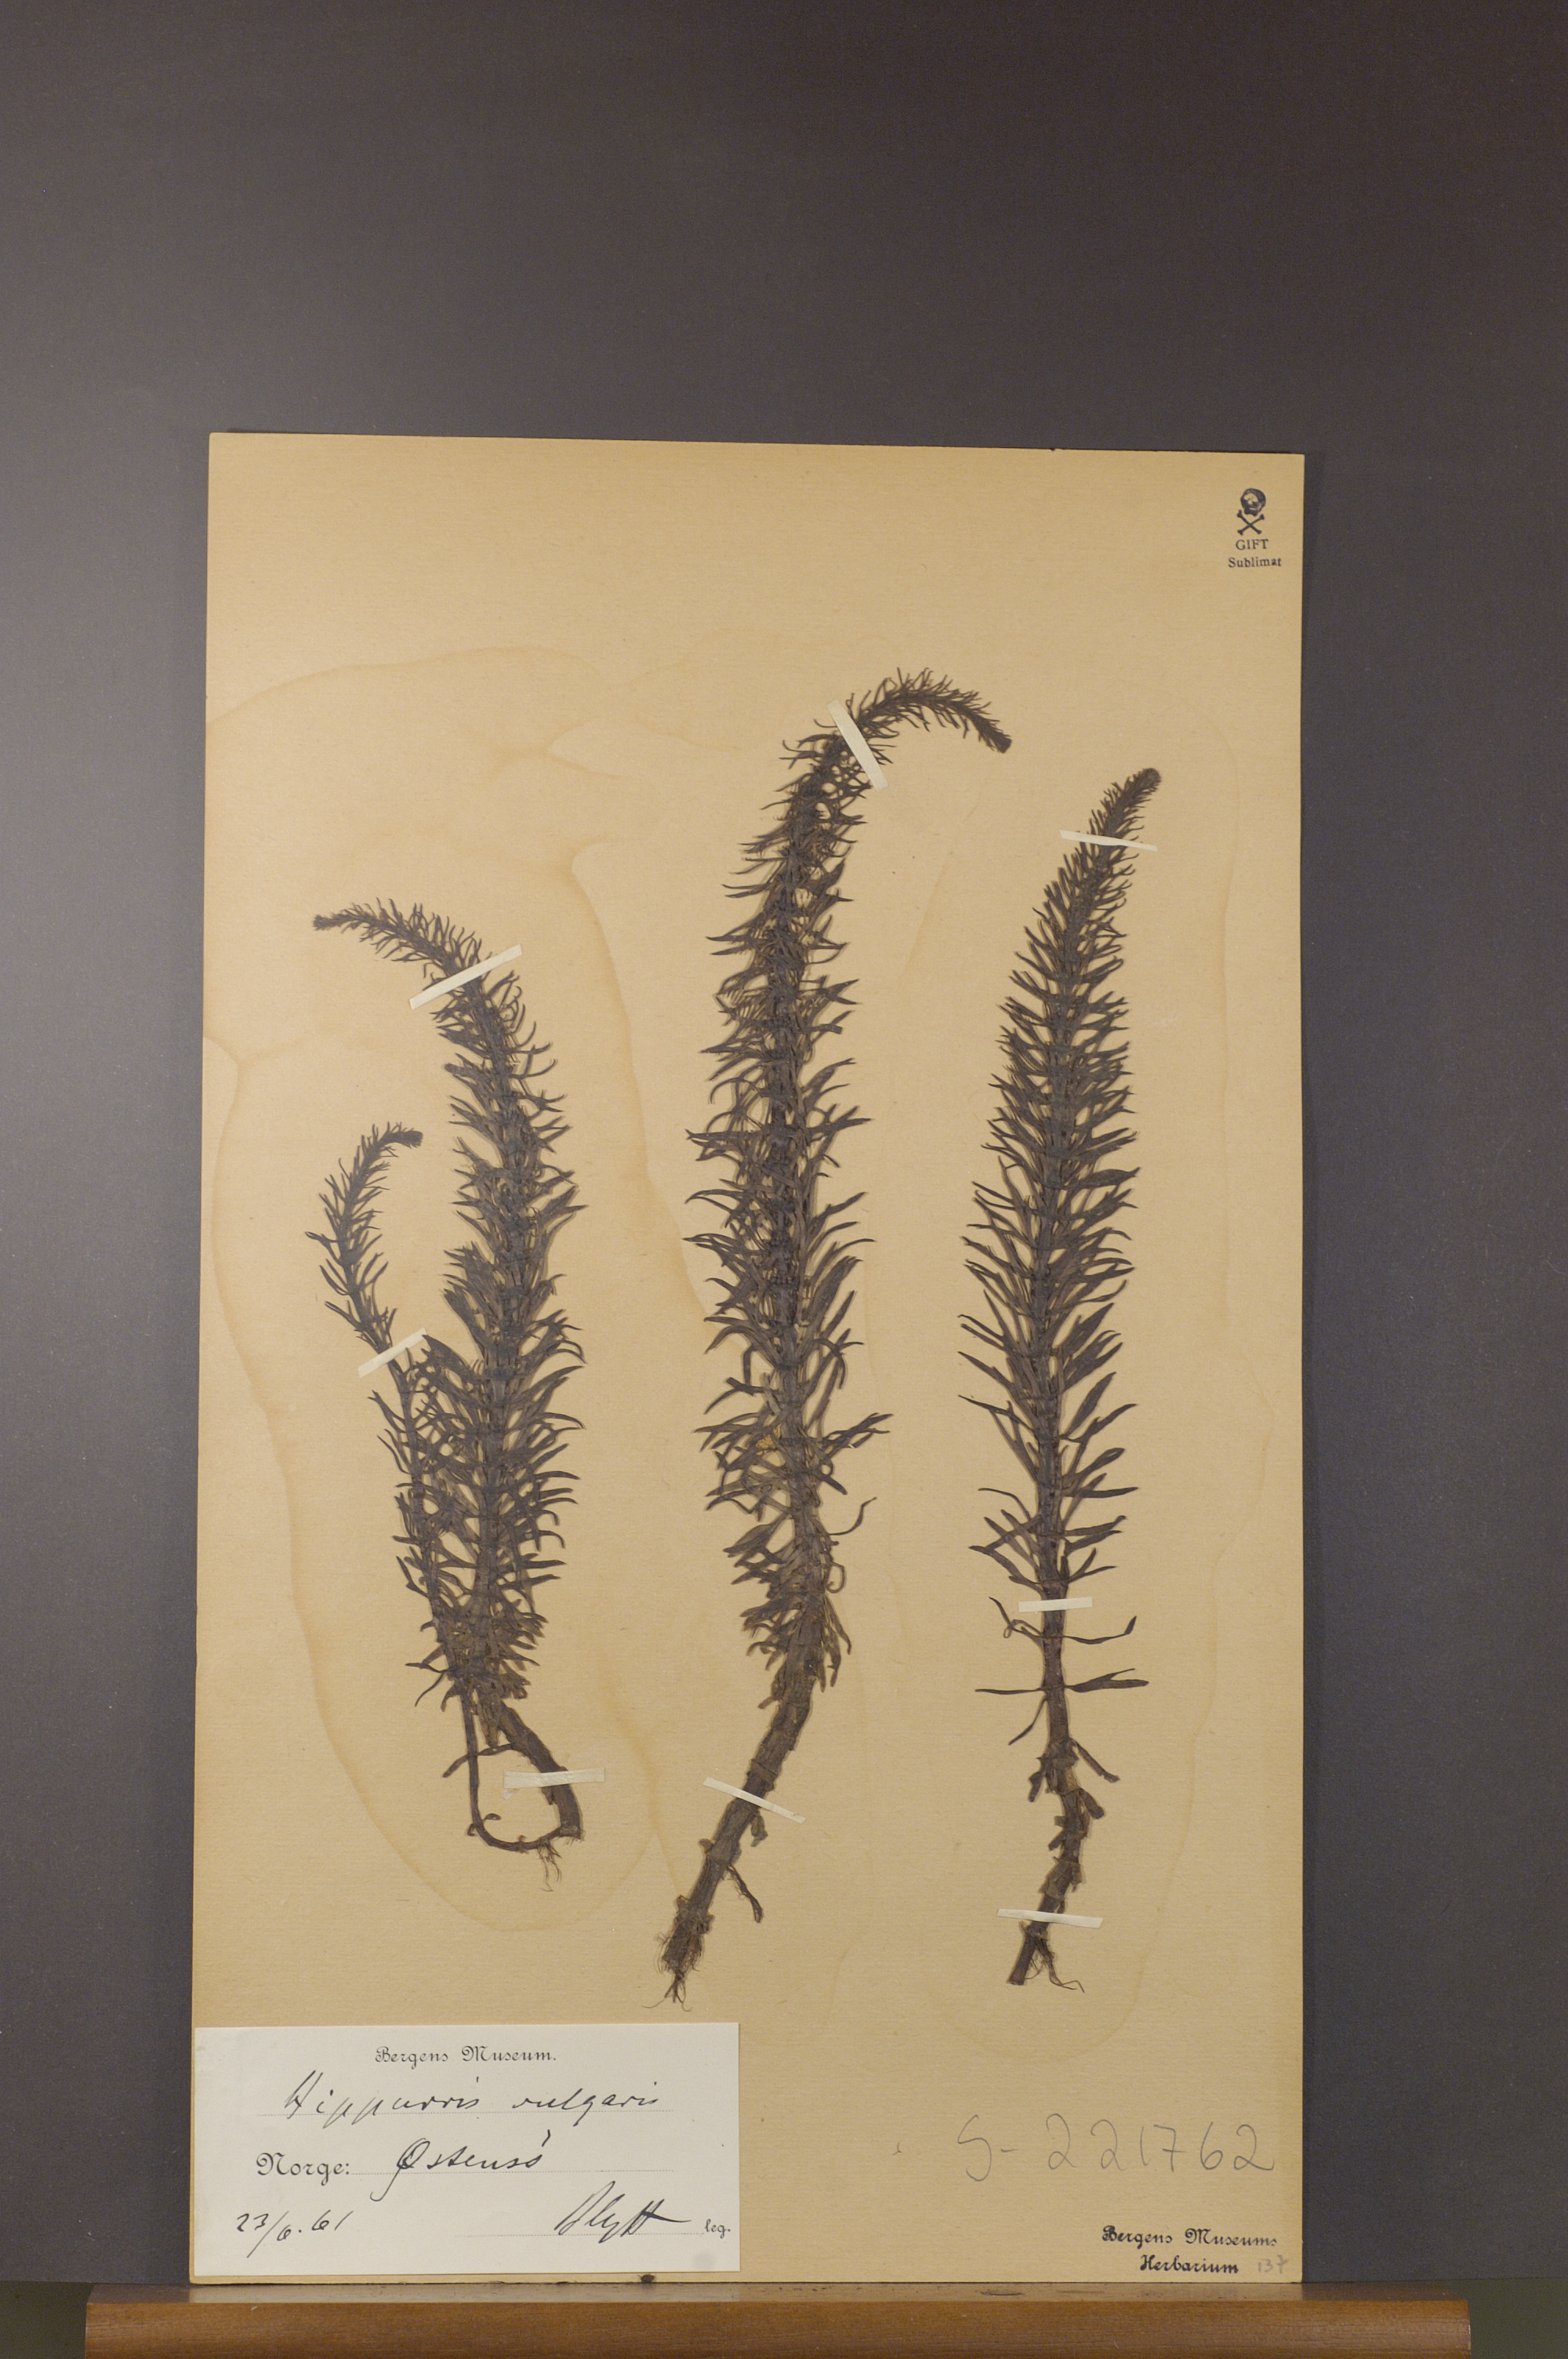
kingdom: Plantae
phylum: Tracheophyta
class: Magnoliopsida
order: Lamiales
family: Plantaginaceae
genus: Hippuris
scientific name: Hippuris vulgaris
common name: Mare's-tail
